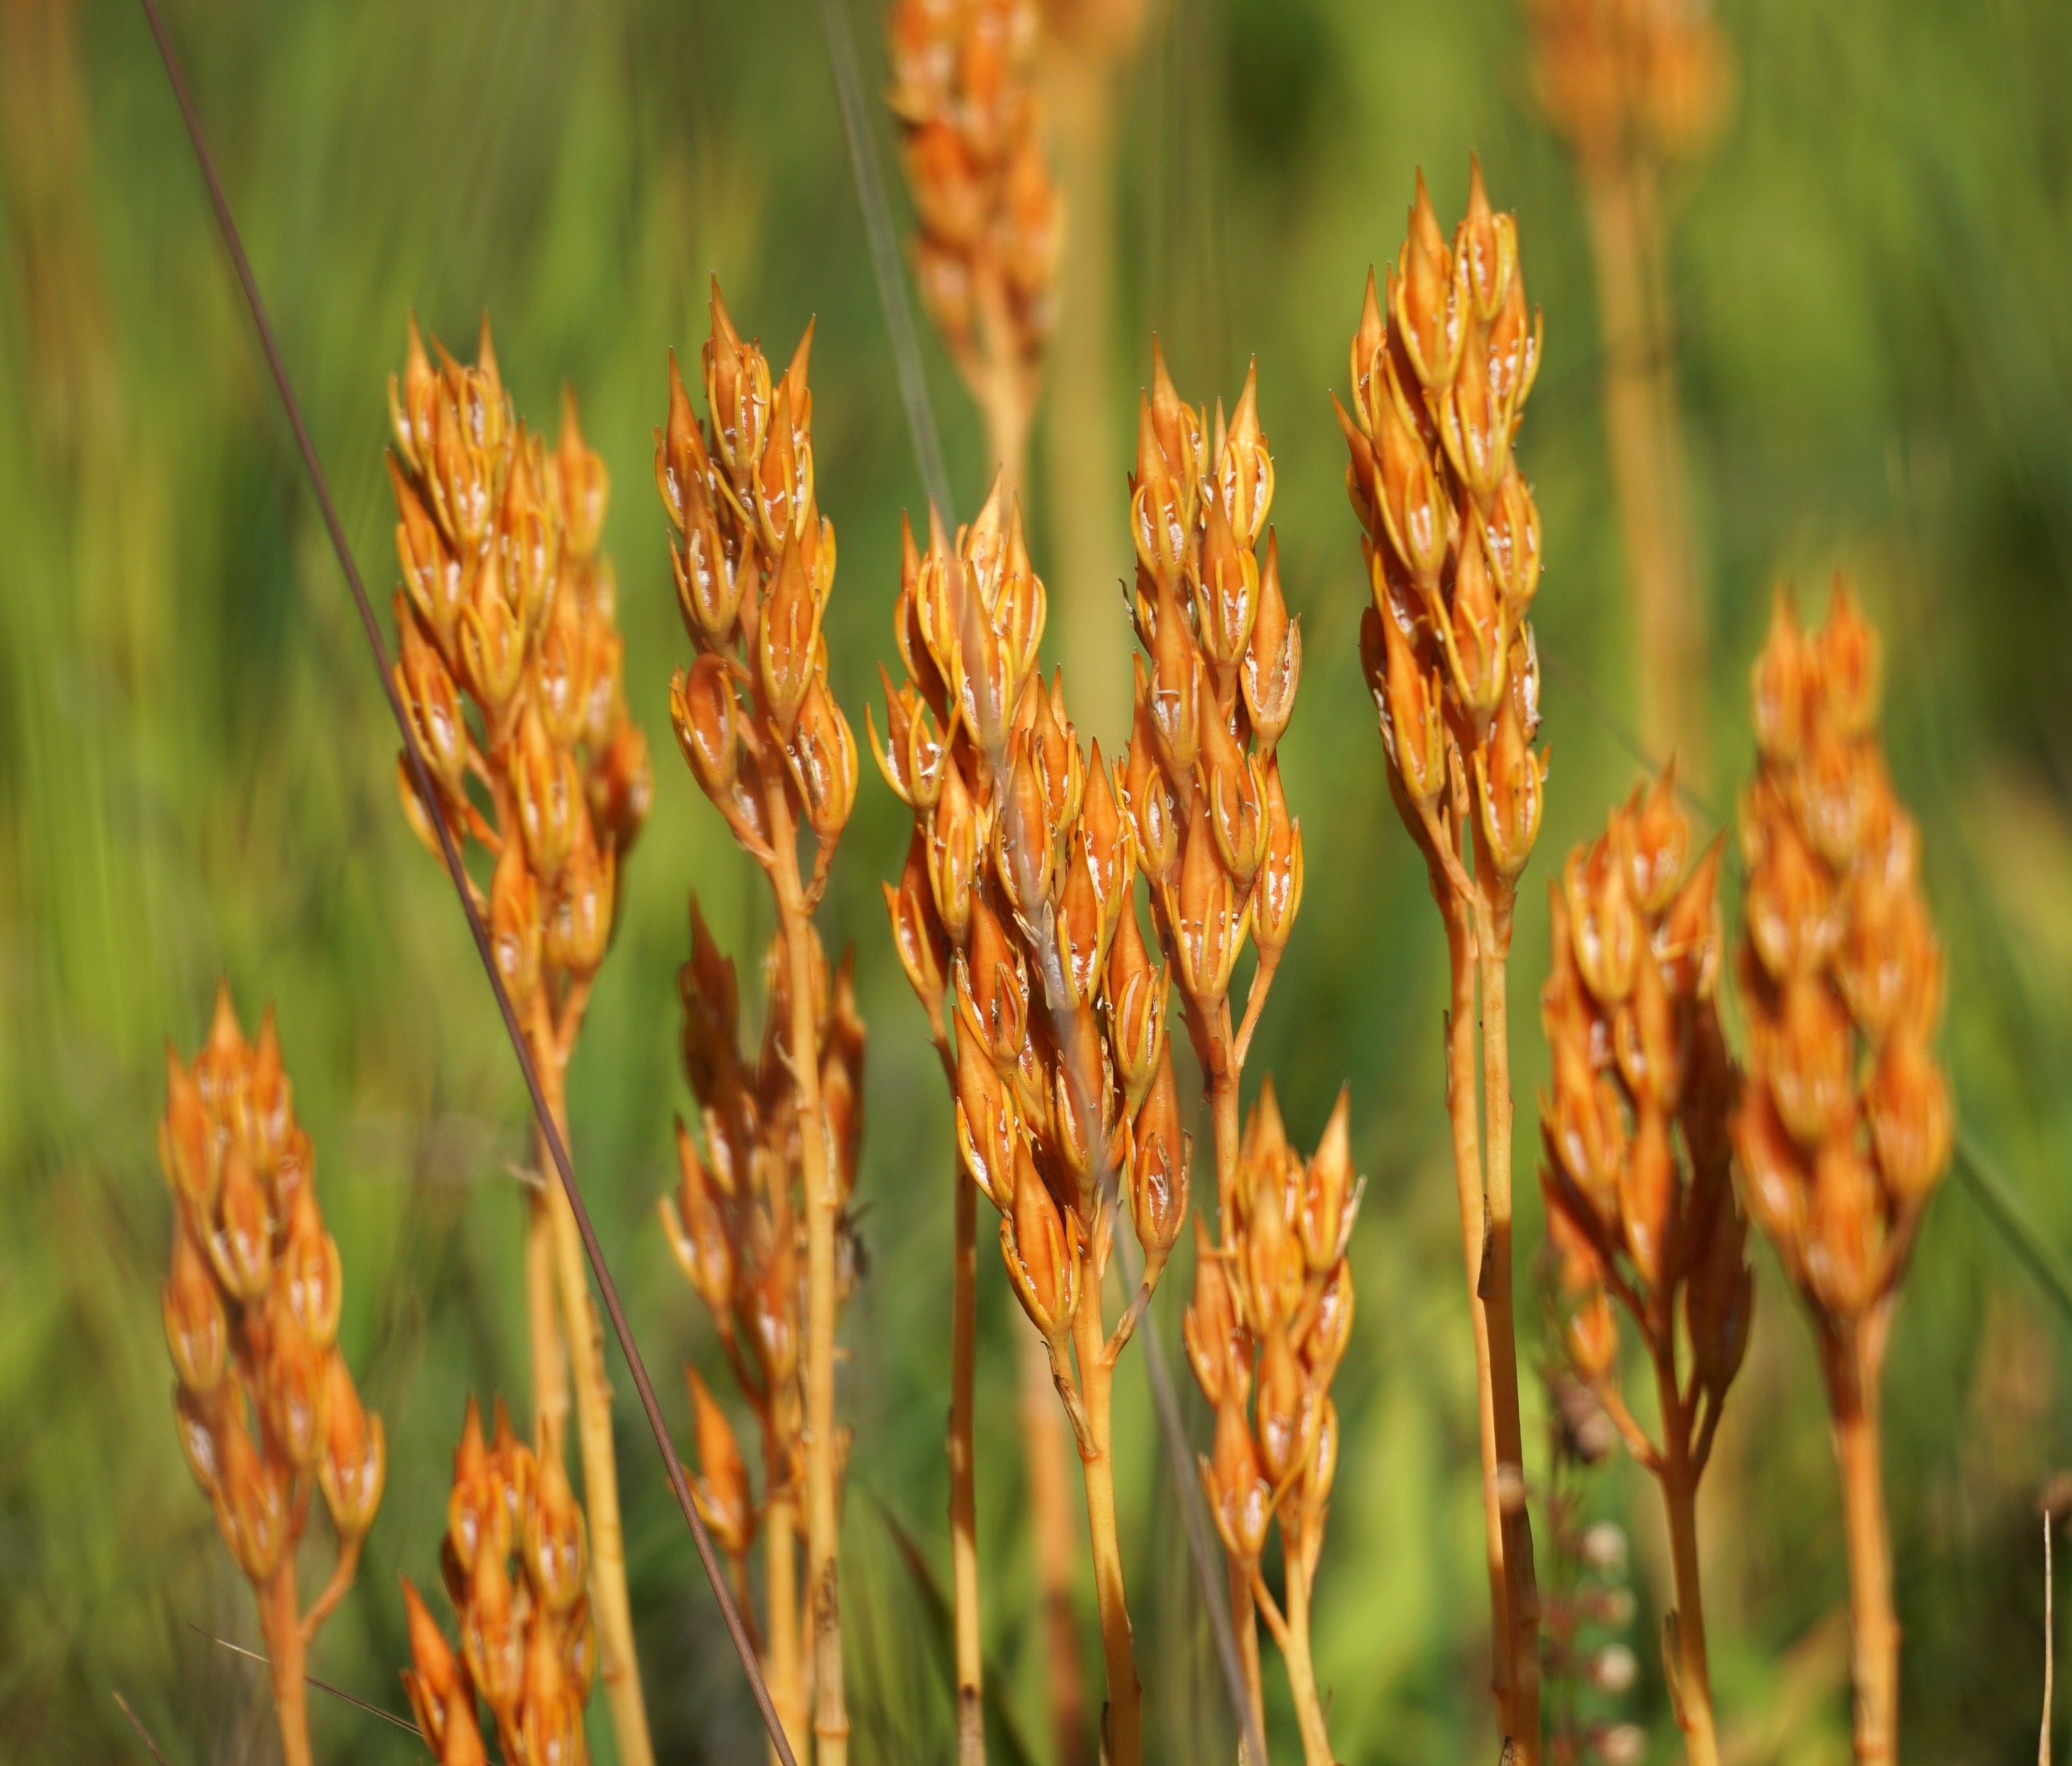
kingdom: Plantae
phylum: Tracheophyta
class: Liliopsida
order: Dioscoreales
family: Nartheciaceae
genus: Narthecium
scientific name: Narthecium ossifragum
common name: Benbræk
